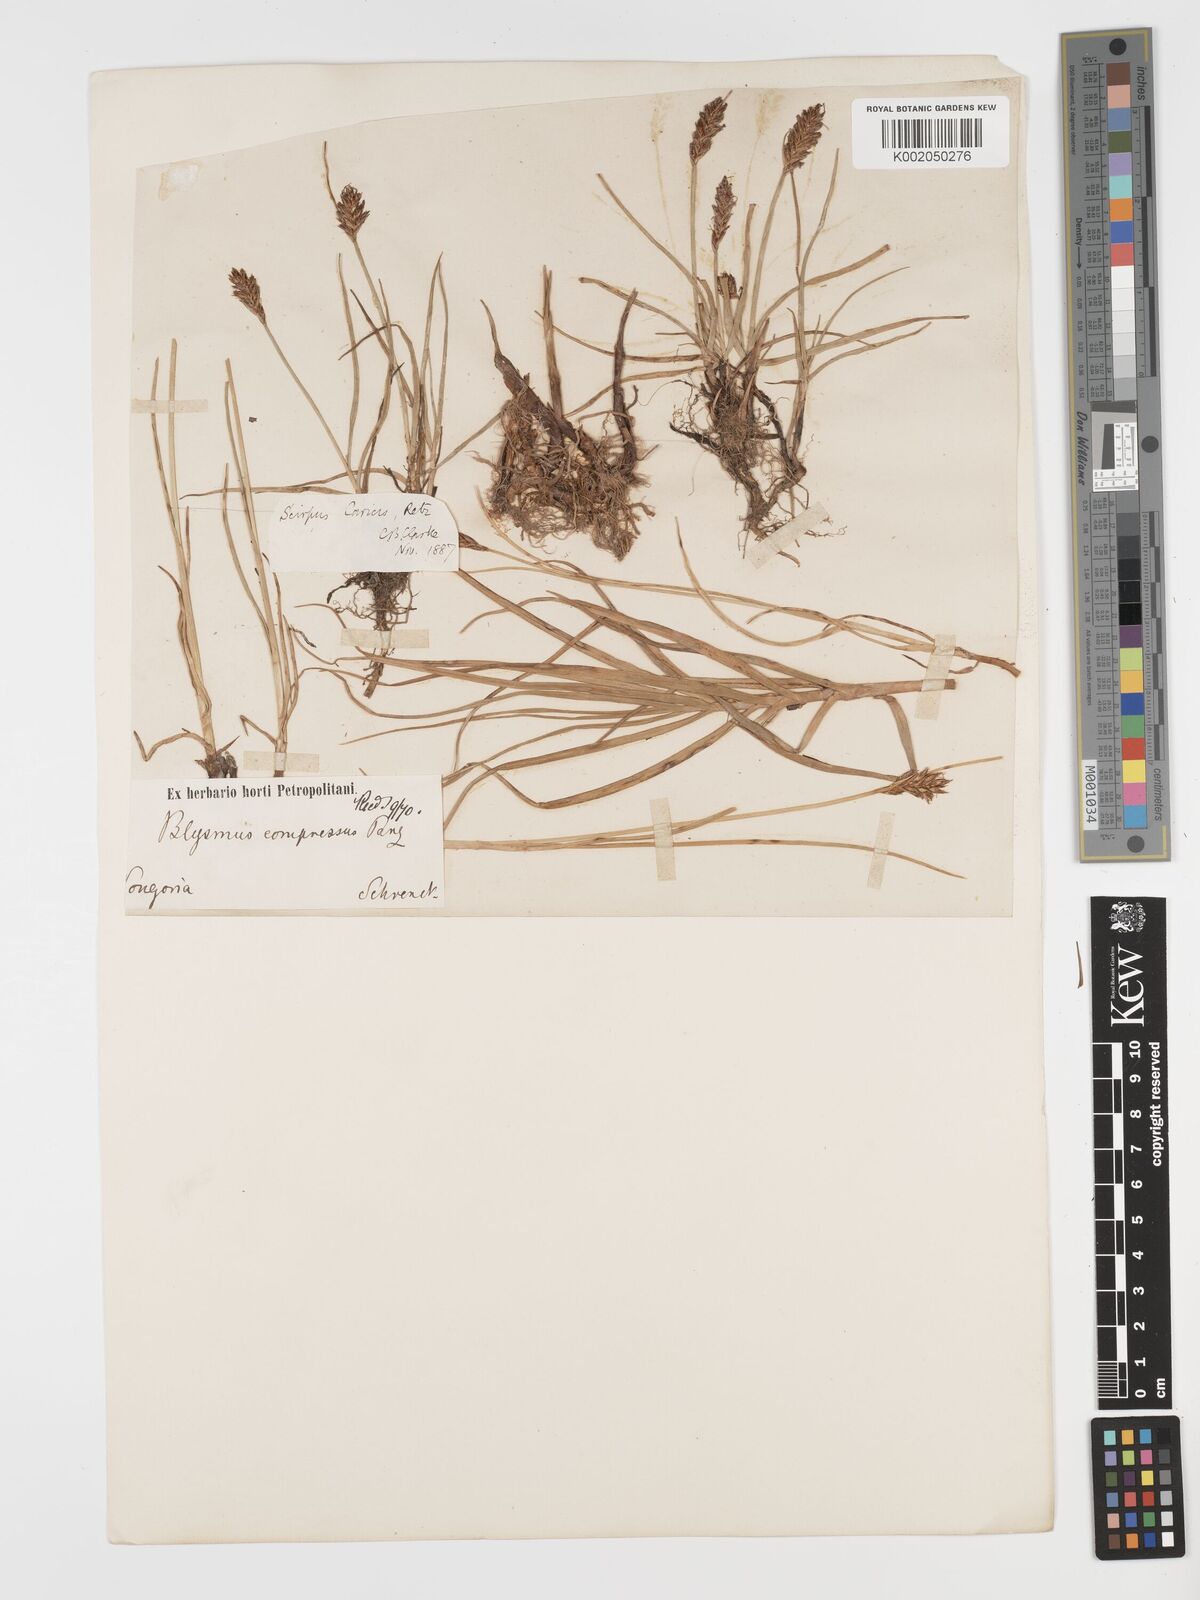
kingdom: Plantae
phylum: Tracheophyta
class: Liliopsida
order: Poales
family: Cyperaceae
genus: Blysmus
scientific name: Blysmus compressus
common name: Flat-sedge
